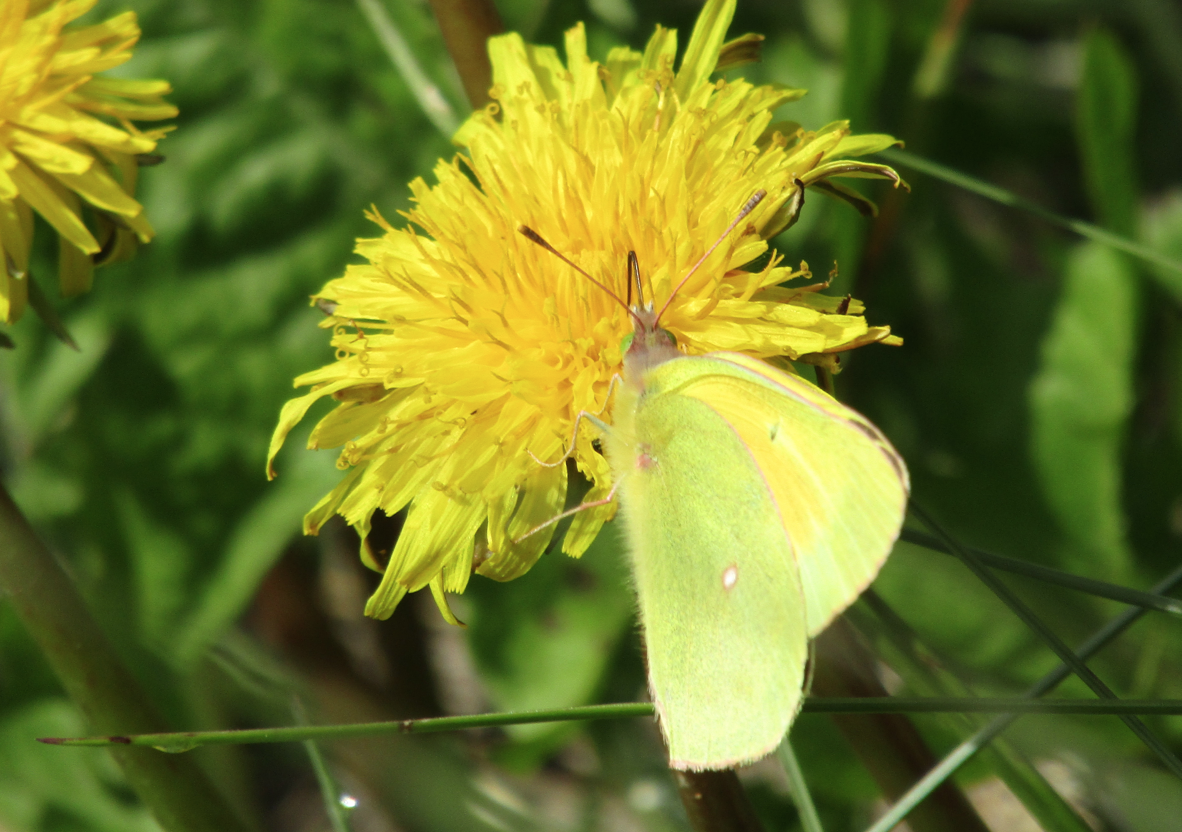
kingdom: Animalia
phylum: Arthropoda
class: Insecta
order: Lepidoptera
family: Pieridae
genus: Colias
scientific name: Colias christina
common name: Christina Sulphur
